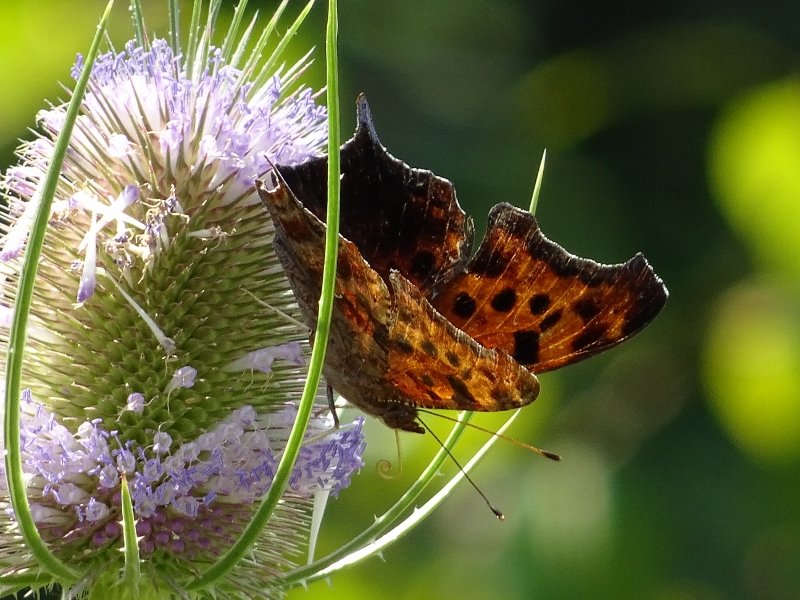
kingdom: Animalia
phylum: Arthropoda
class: Insecta
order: Lepidoptera
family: Nymphalidae
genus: Polygonia
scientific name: Polygonia interrogationis
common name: Question Mark
